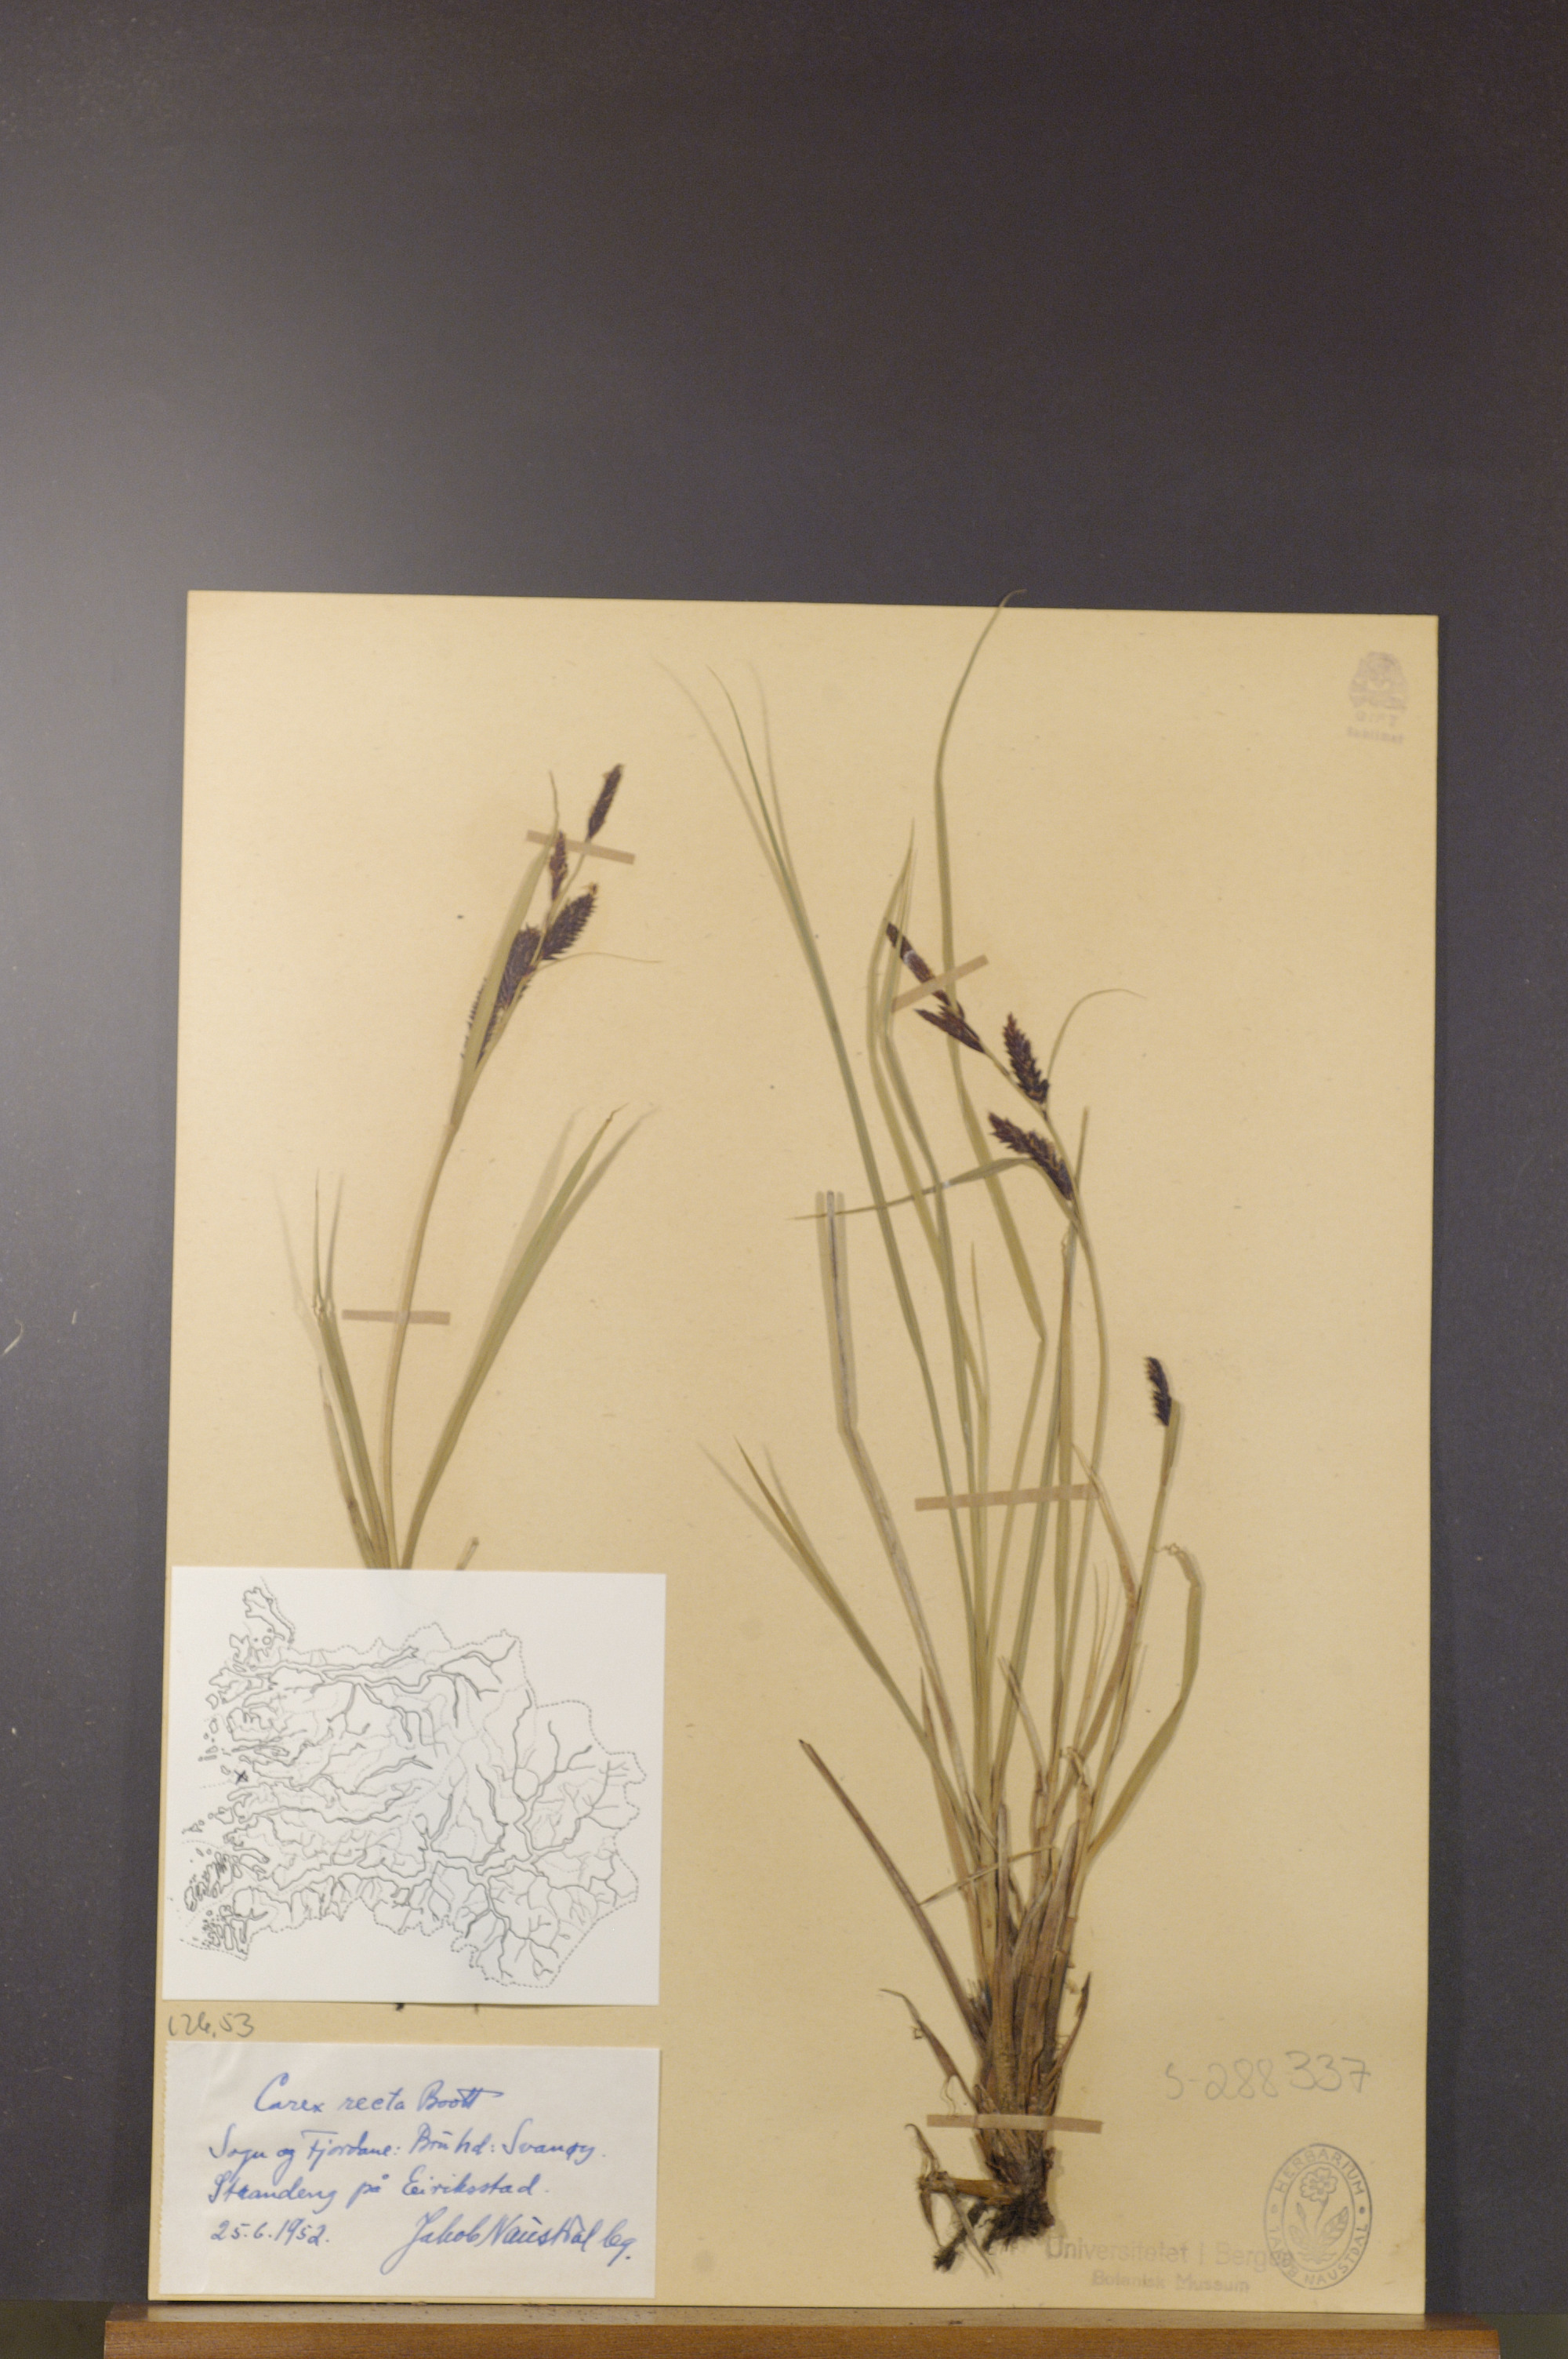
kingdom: Plantae
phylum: Tracheophyta
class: Liliopsida
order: Poales
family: Cyperaceae
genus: Carex
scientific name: Carex recta
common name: Estuarine sedge
